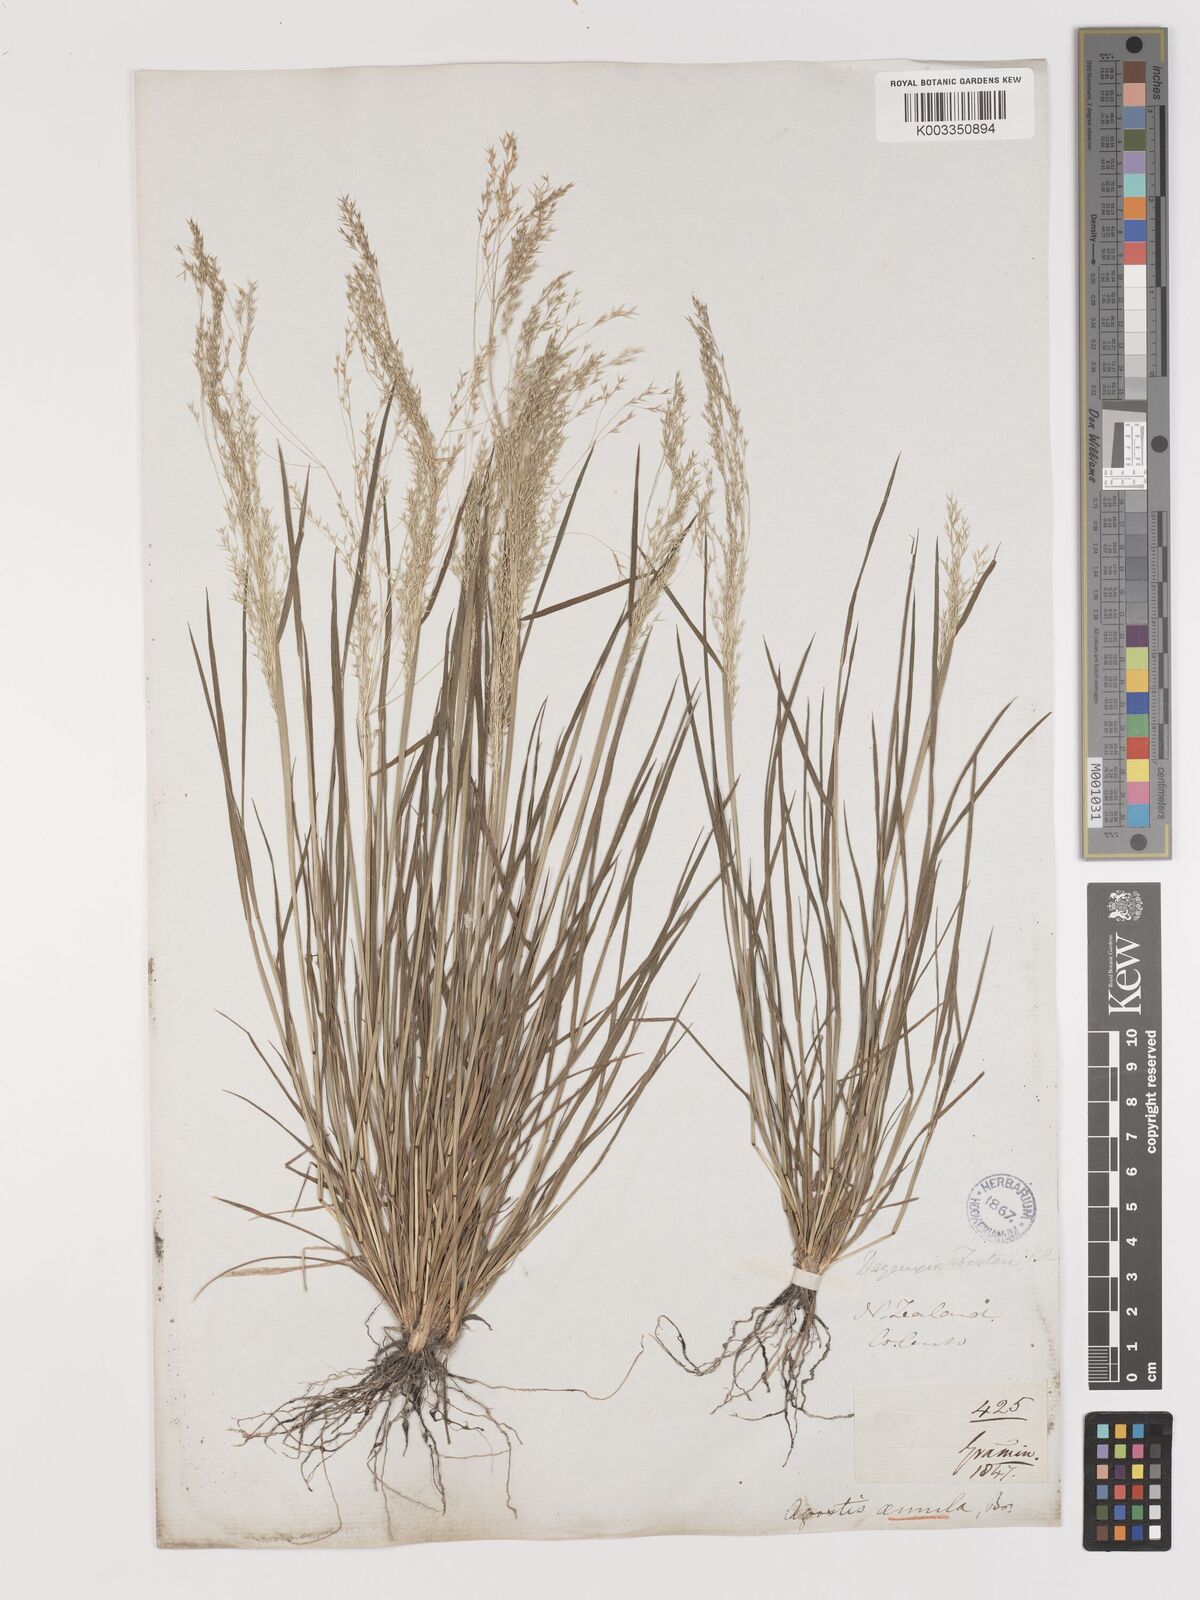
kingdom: Plantae
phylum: Tracheophyta
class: Liliopsida
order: Poales
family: Poaceae
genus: Lachnagrostis
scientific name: Lachnagrostis filiformis
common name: Bentgrass
